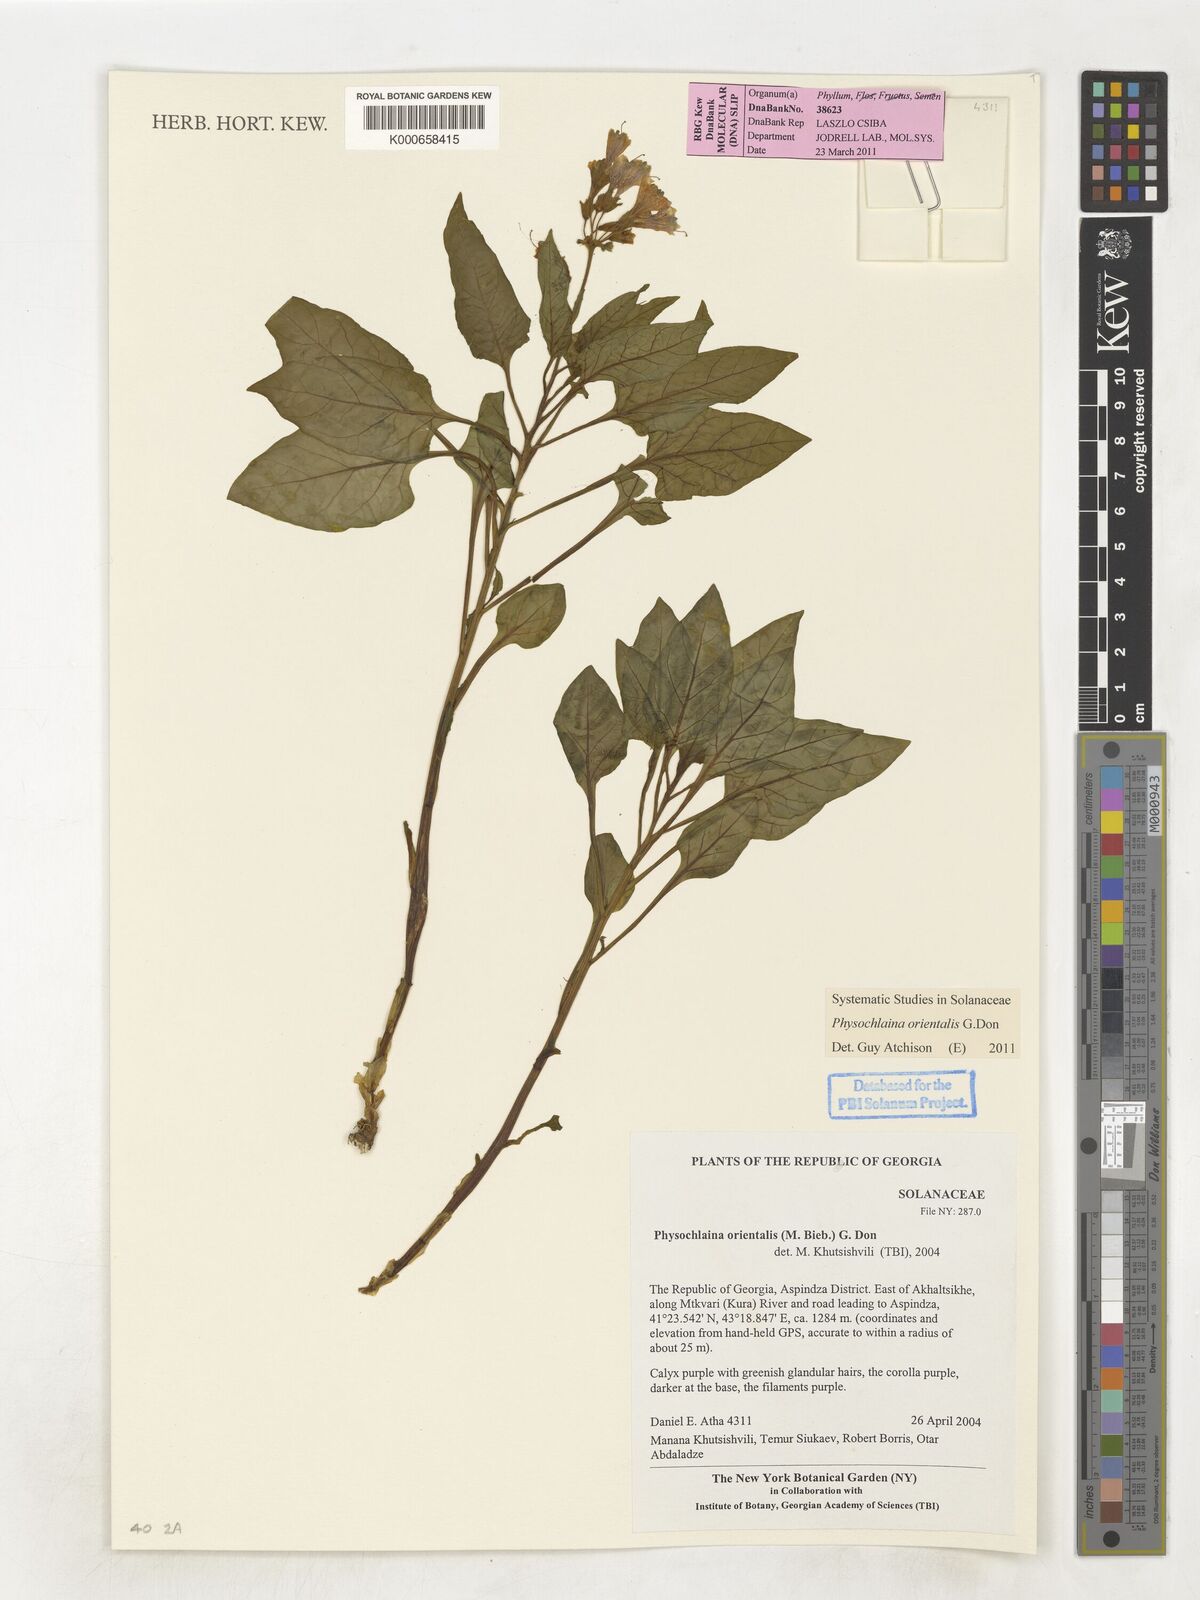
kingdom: Plantae
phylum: Tracheophyta
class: Magnoliopsida
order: Solanales
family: Solanaceae
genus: Physochlaina
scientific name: Physochlaina orientalis
